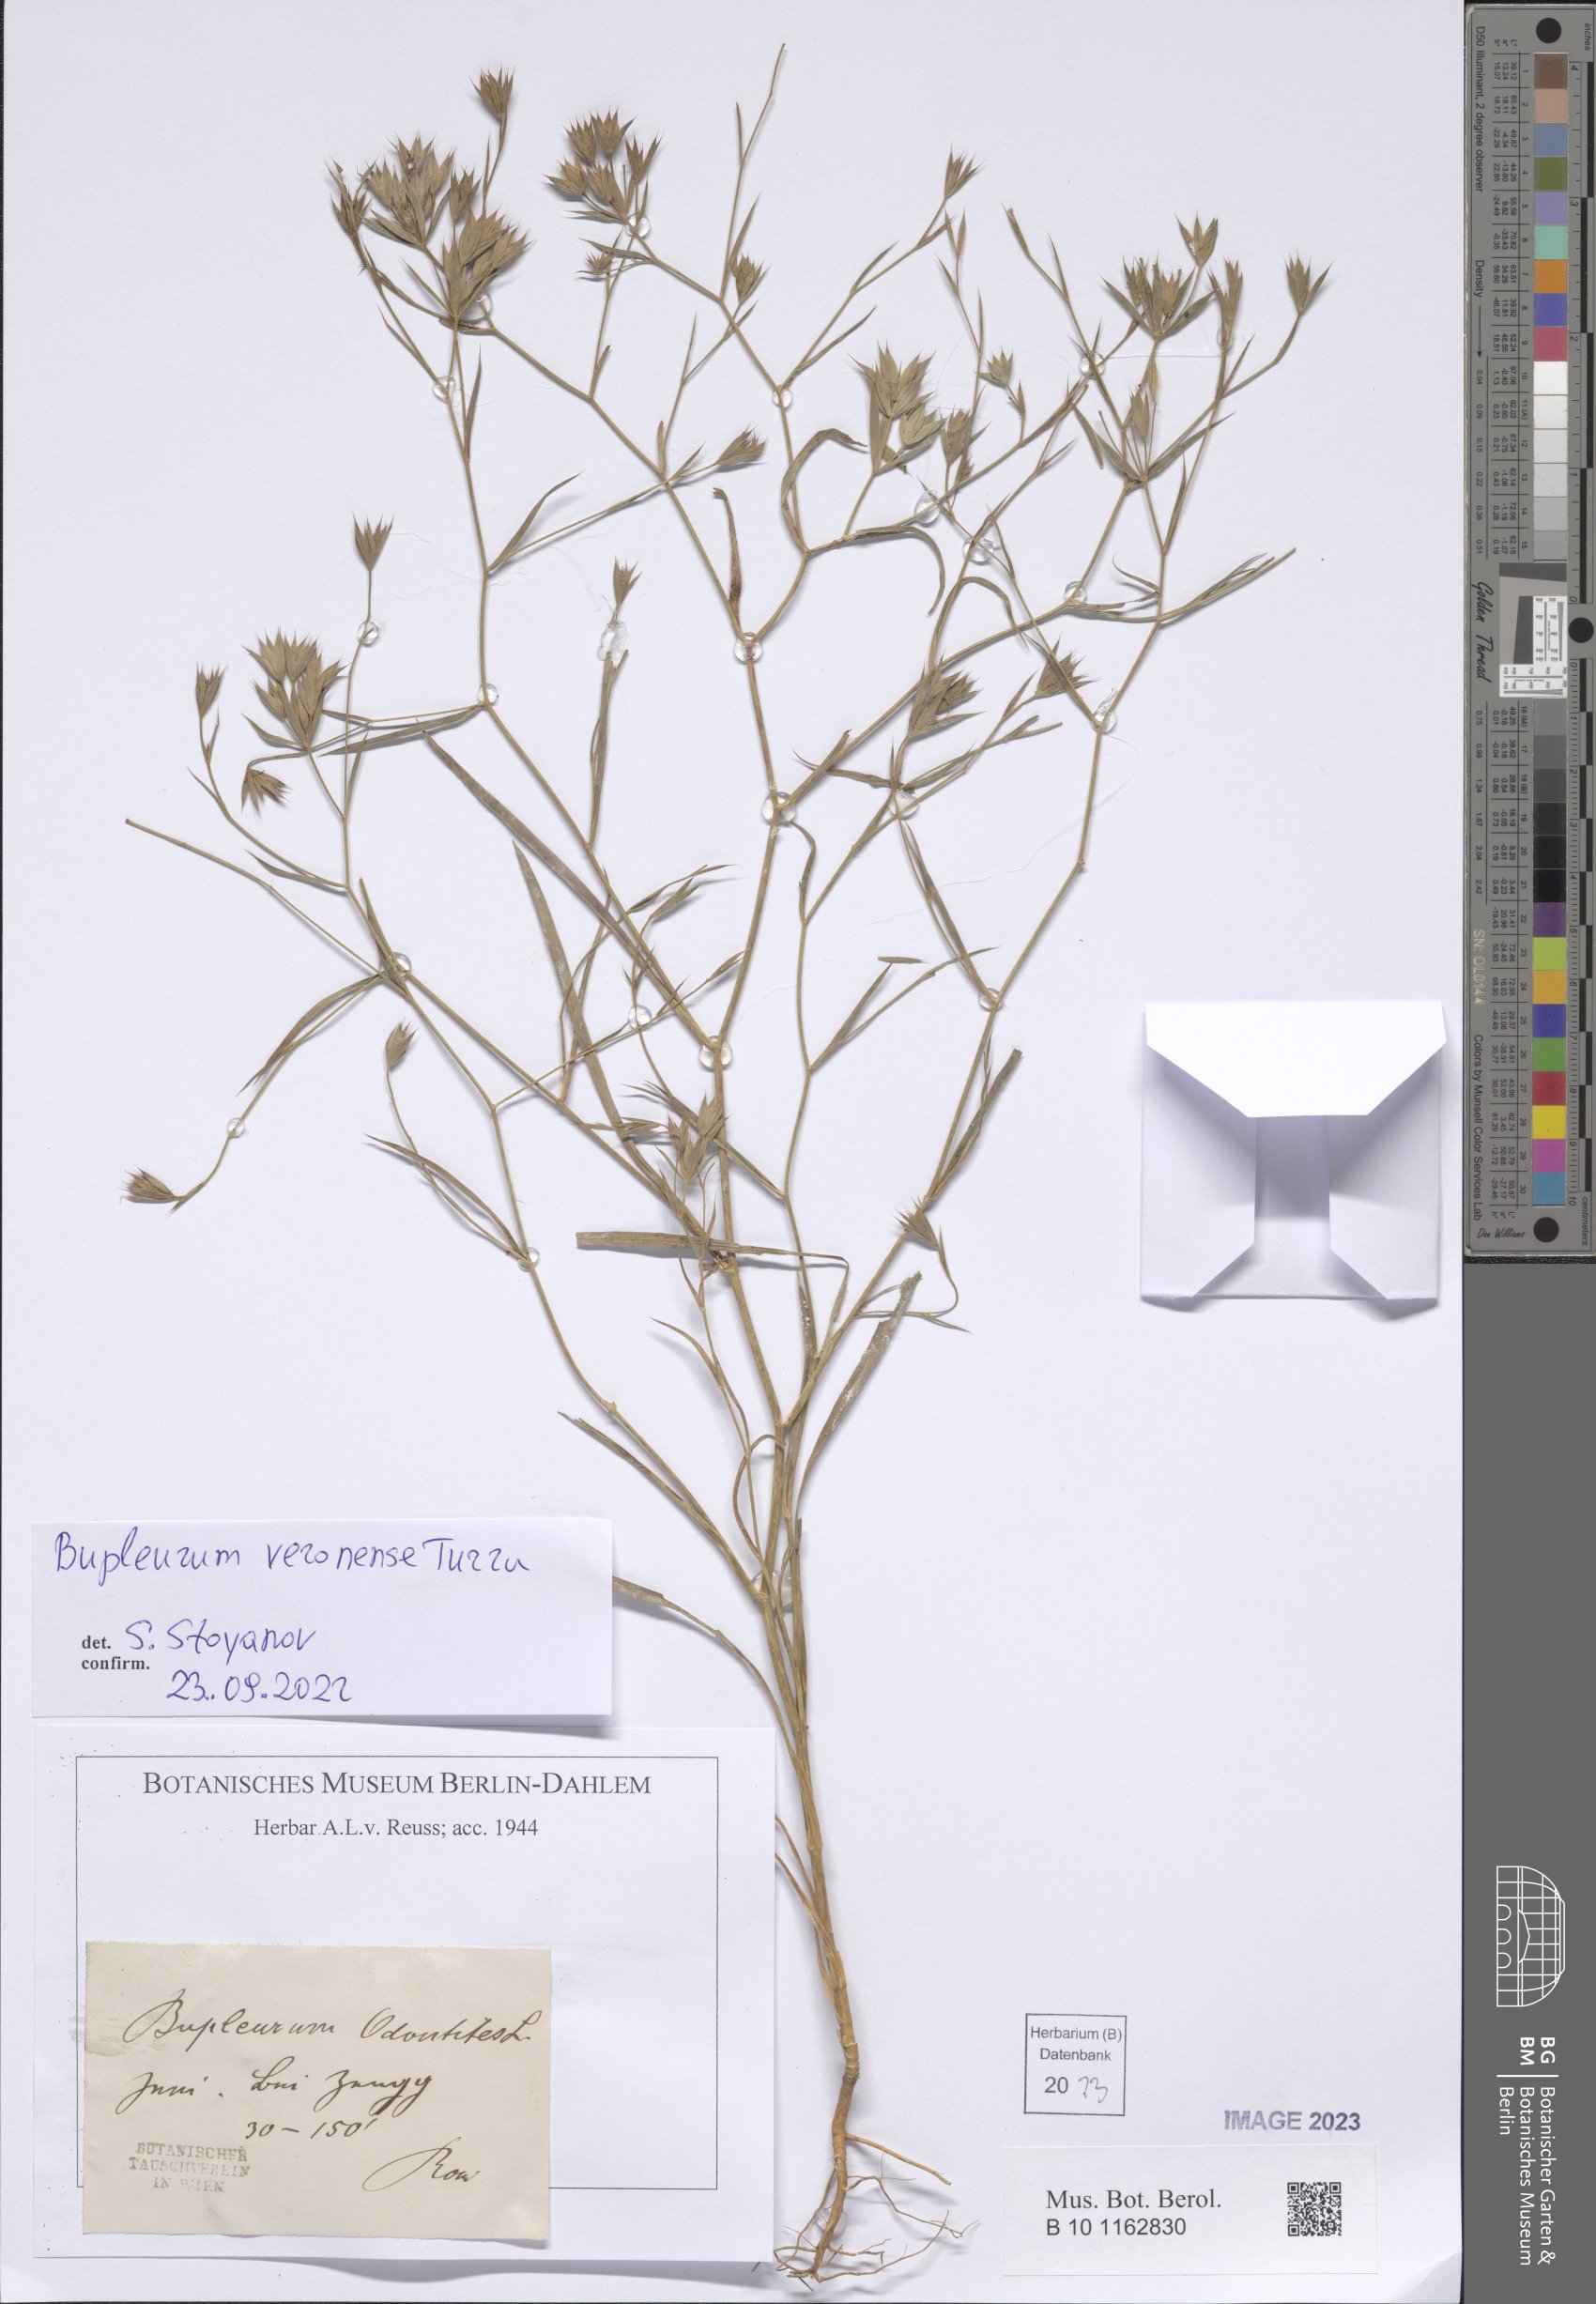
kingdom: Plantae
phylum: Tracheophyta
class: Magnoliopsida
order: Apiales
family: Apiaceae
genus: Bupleurum
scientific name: Bupleurum veronense
